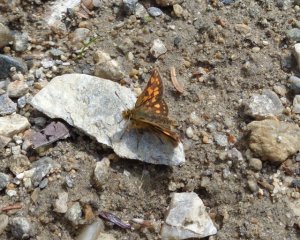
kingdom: Animalia
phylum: Arthropoda
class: Insecta
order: Lepidoptera
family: Hesperiidae
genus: Carterocephalus
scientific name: Carterocephalus palaemon
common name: Chequered Skipper
